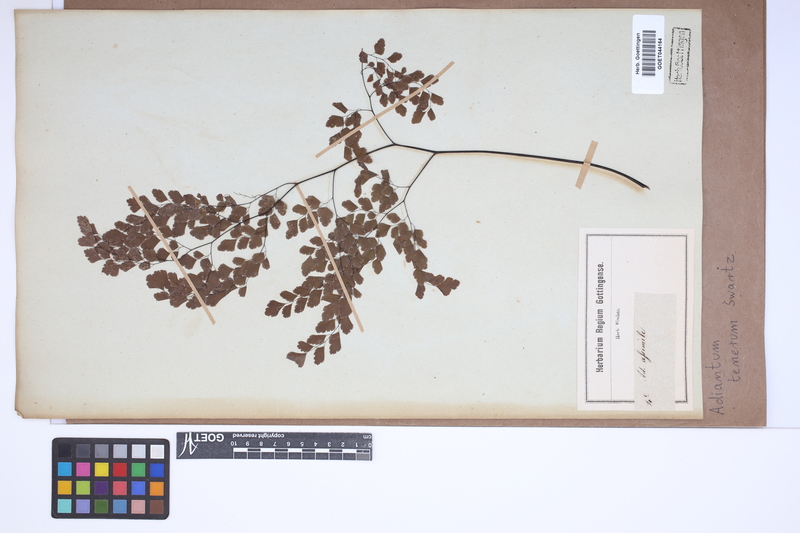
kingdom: Plantae
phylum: Tracheophyta
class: Polypodiopsida
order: Polypodiales
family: Pteridaceae
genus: Adiantum
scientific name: Adiantum tenerum
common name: Fan maidenhair
